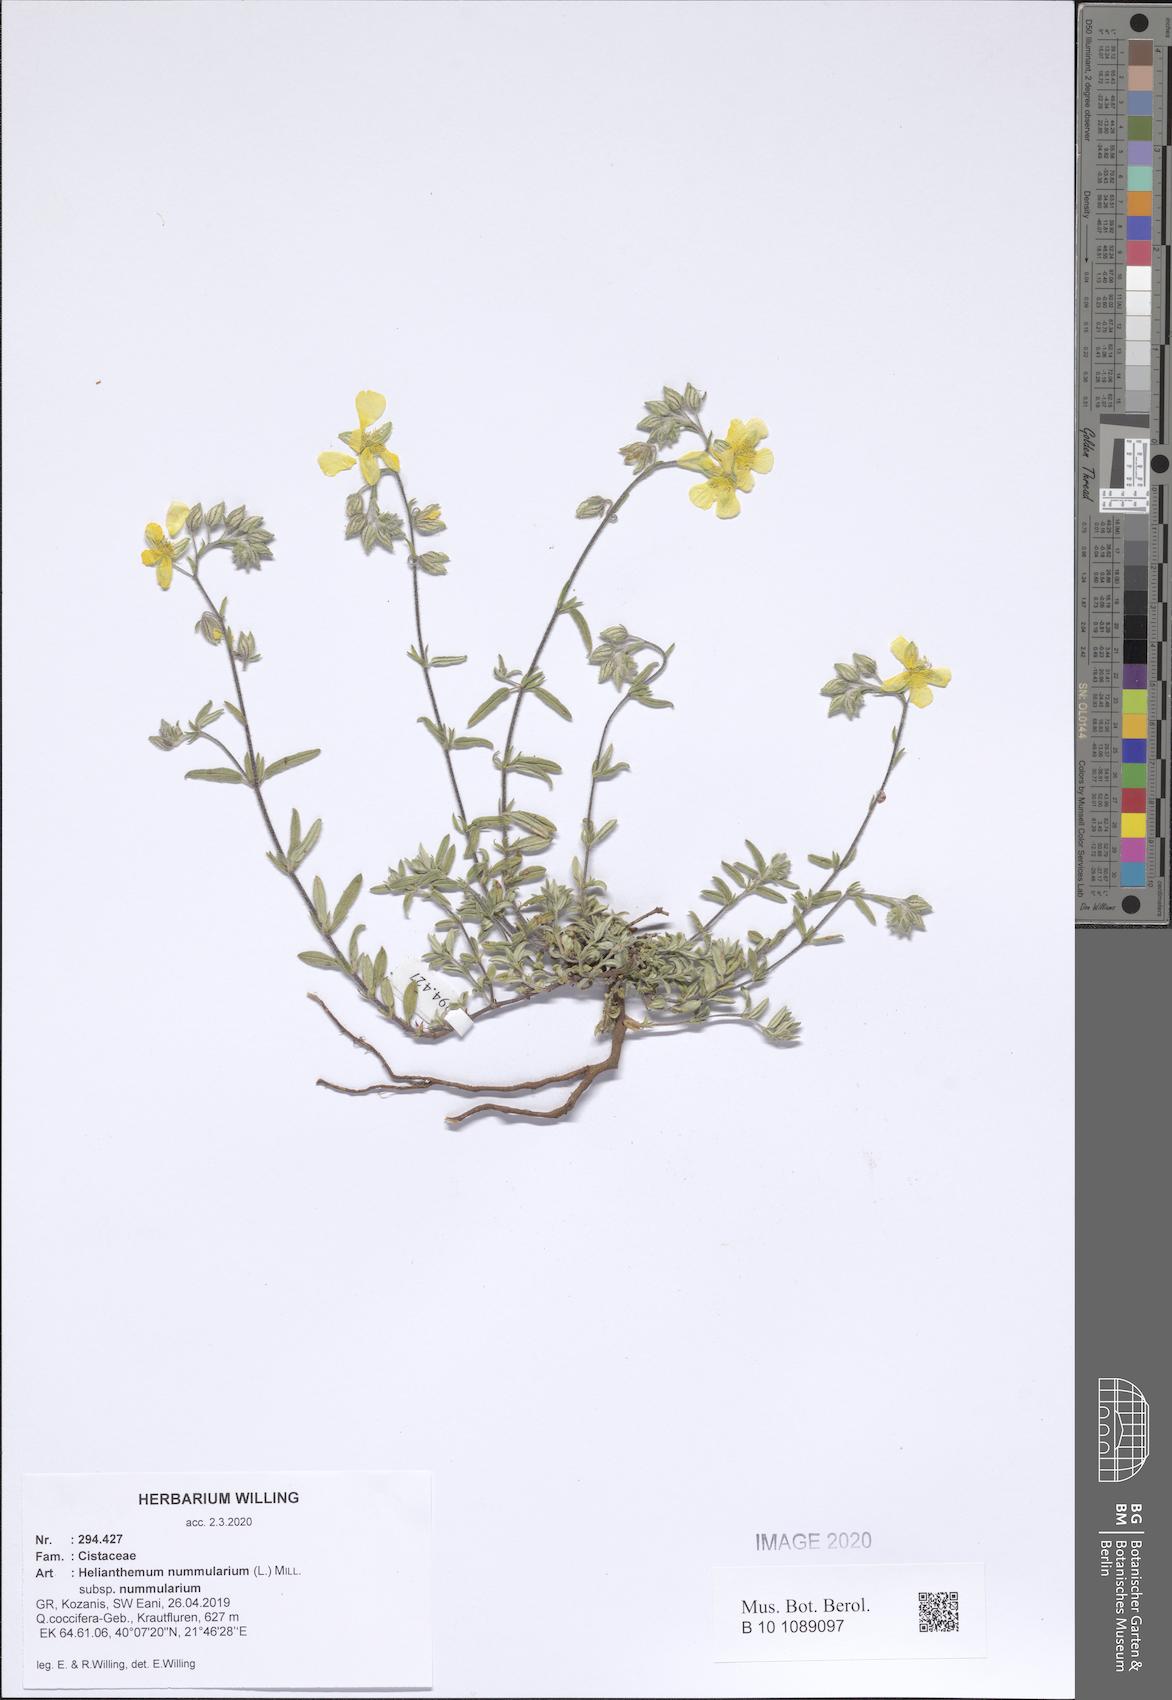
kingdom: Plantae
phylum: Tracheophyta
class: Magnoliopsida
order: Malvales
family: Cistaceae
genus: Helianthemum
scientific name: Helianthemum nummularium
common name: Common rock-rose
